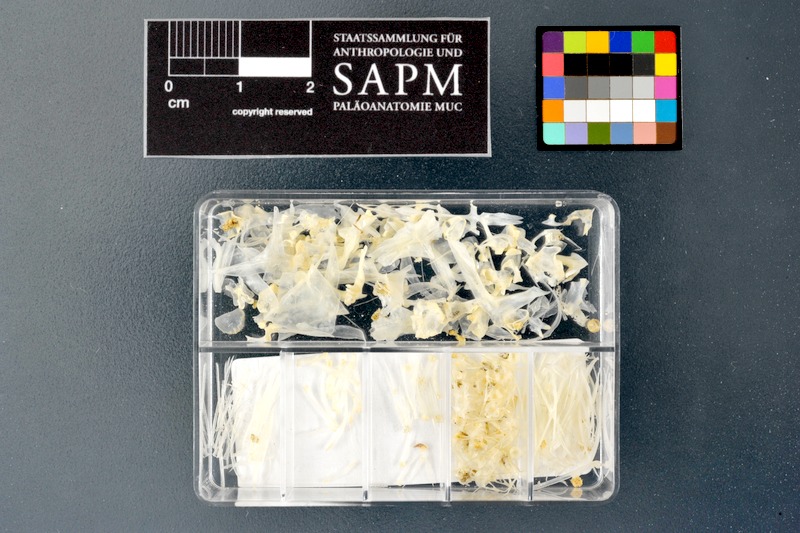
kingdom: Animalia
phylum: Chordata
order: Cypriniformes
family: Cyprinidae
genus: Alburnus
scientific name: Alburnus mossulensis
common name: Mossul bleak
